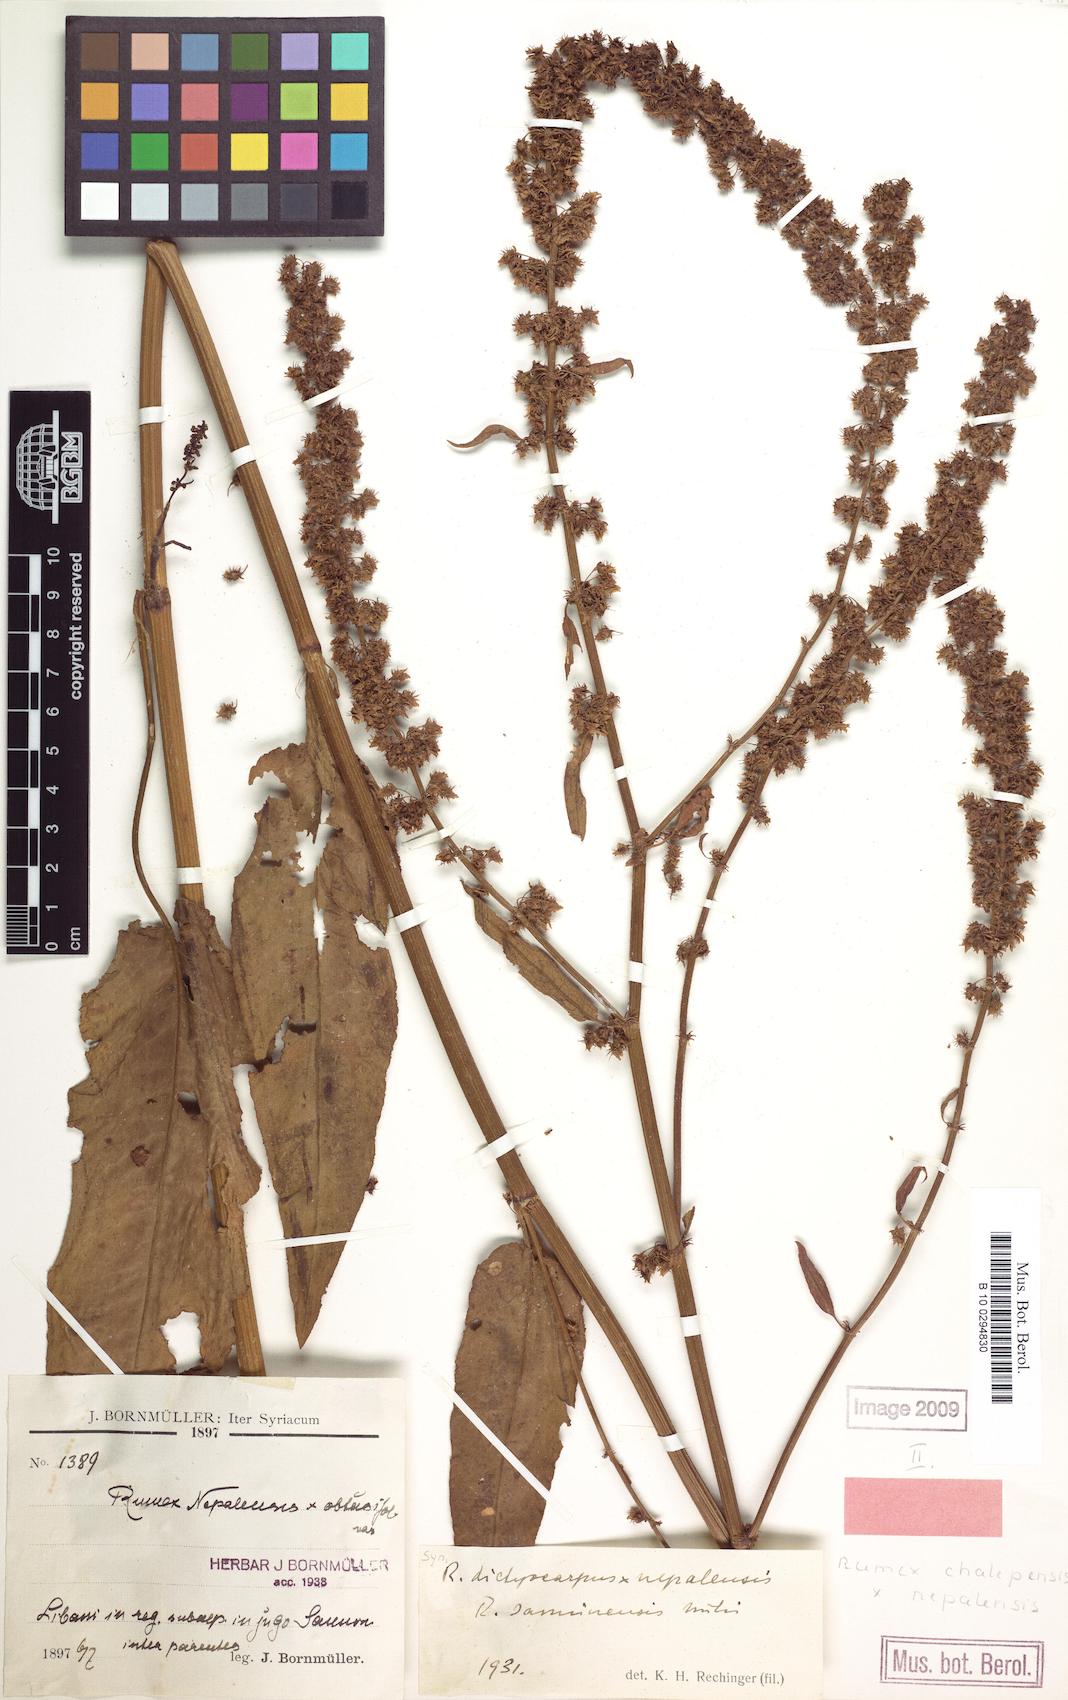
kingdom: Plantae
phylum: Tracheophyta
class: Magnoliopsida
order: Caryophyllales
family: Polygonaceae
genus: Rumex
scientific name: Rumex chalepensis
